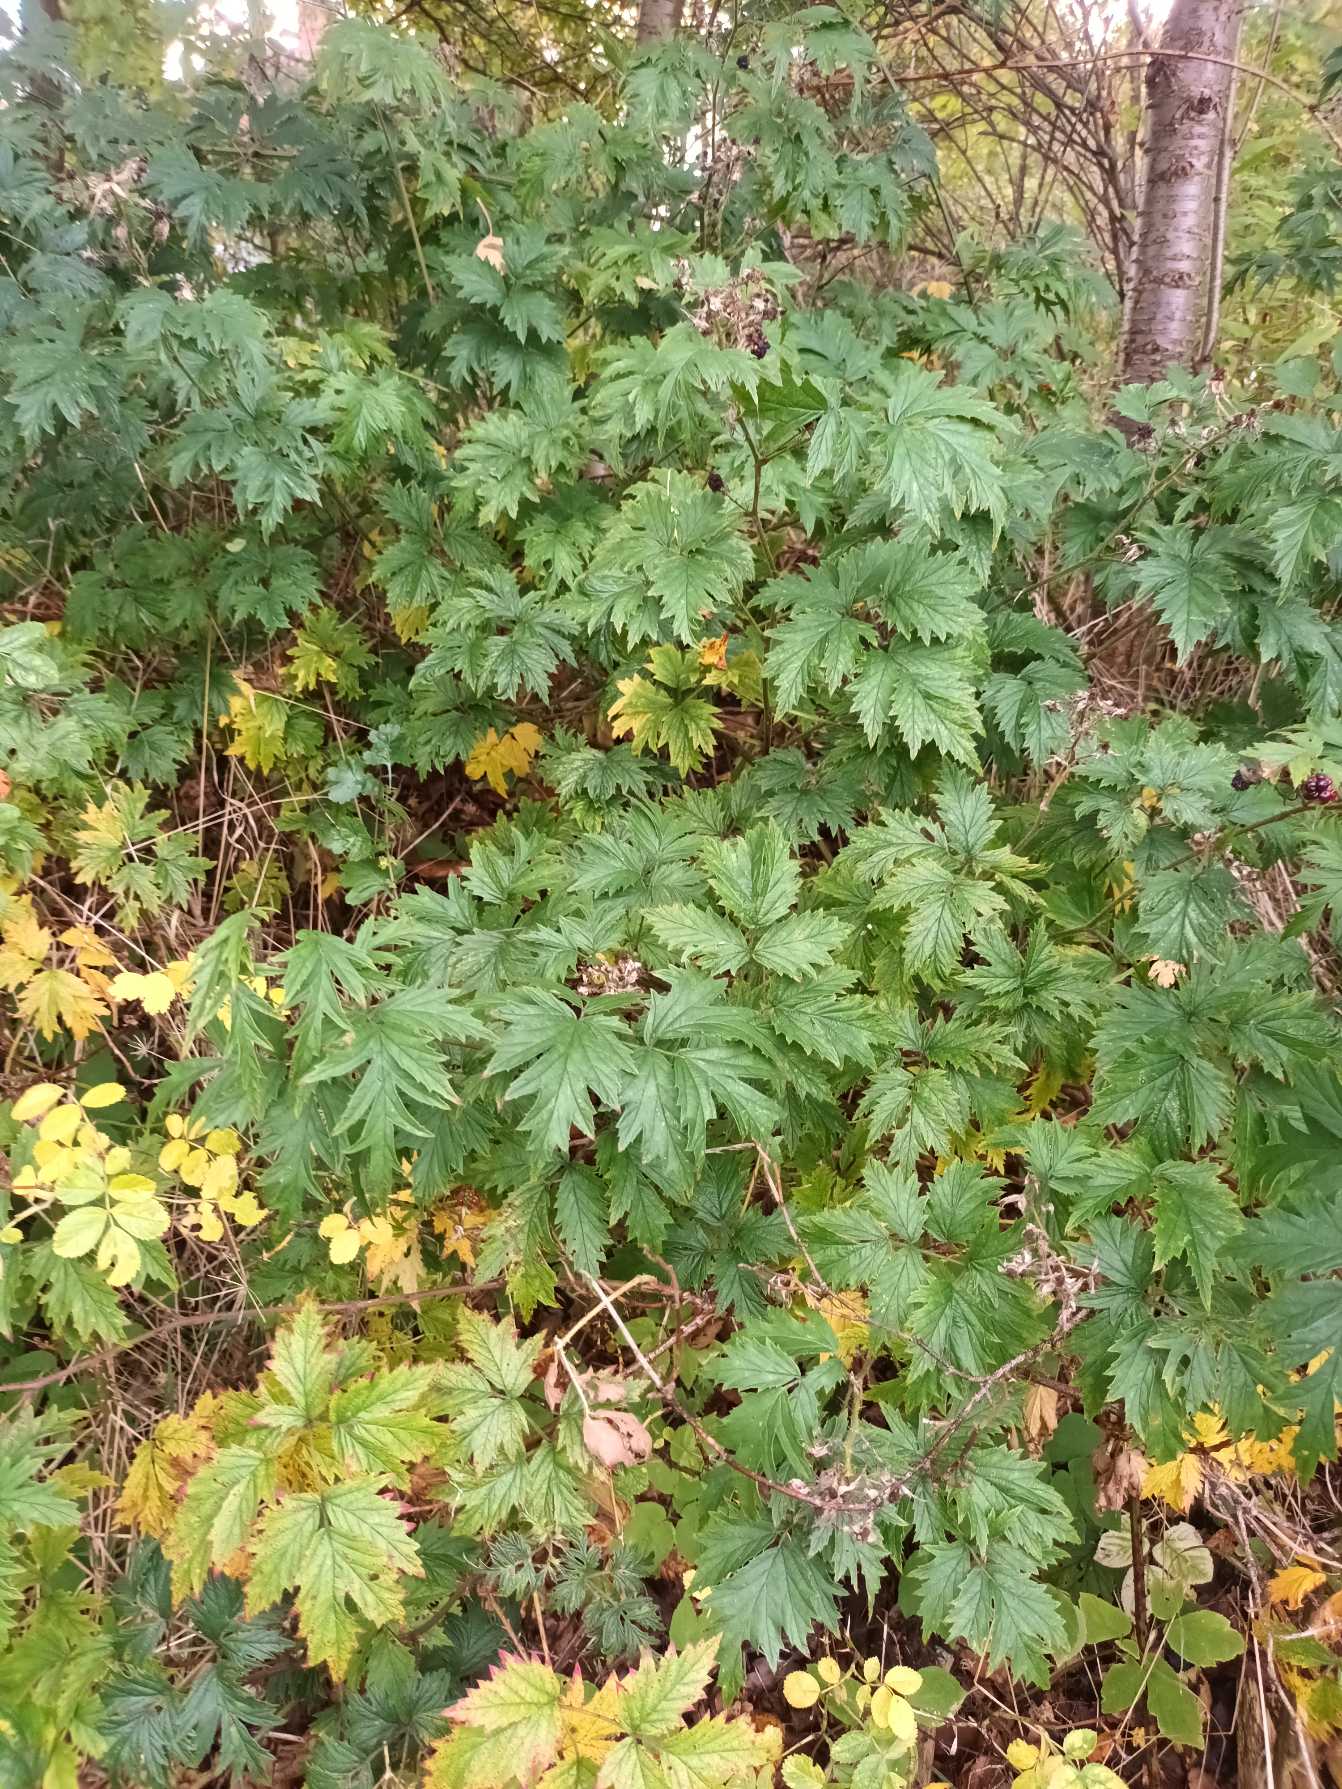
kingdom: Plantae
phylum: Tracheophyta
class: Magnoliopsida
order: Rosales
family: Rosaceae
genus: Rubus
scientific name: Rubus laciniatus
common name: Fliget brombær
